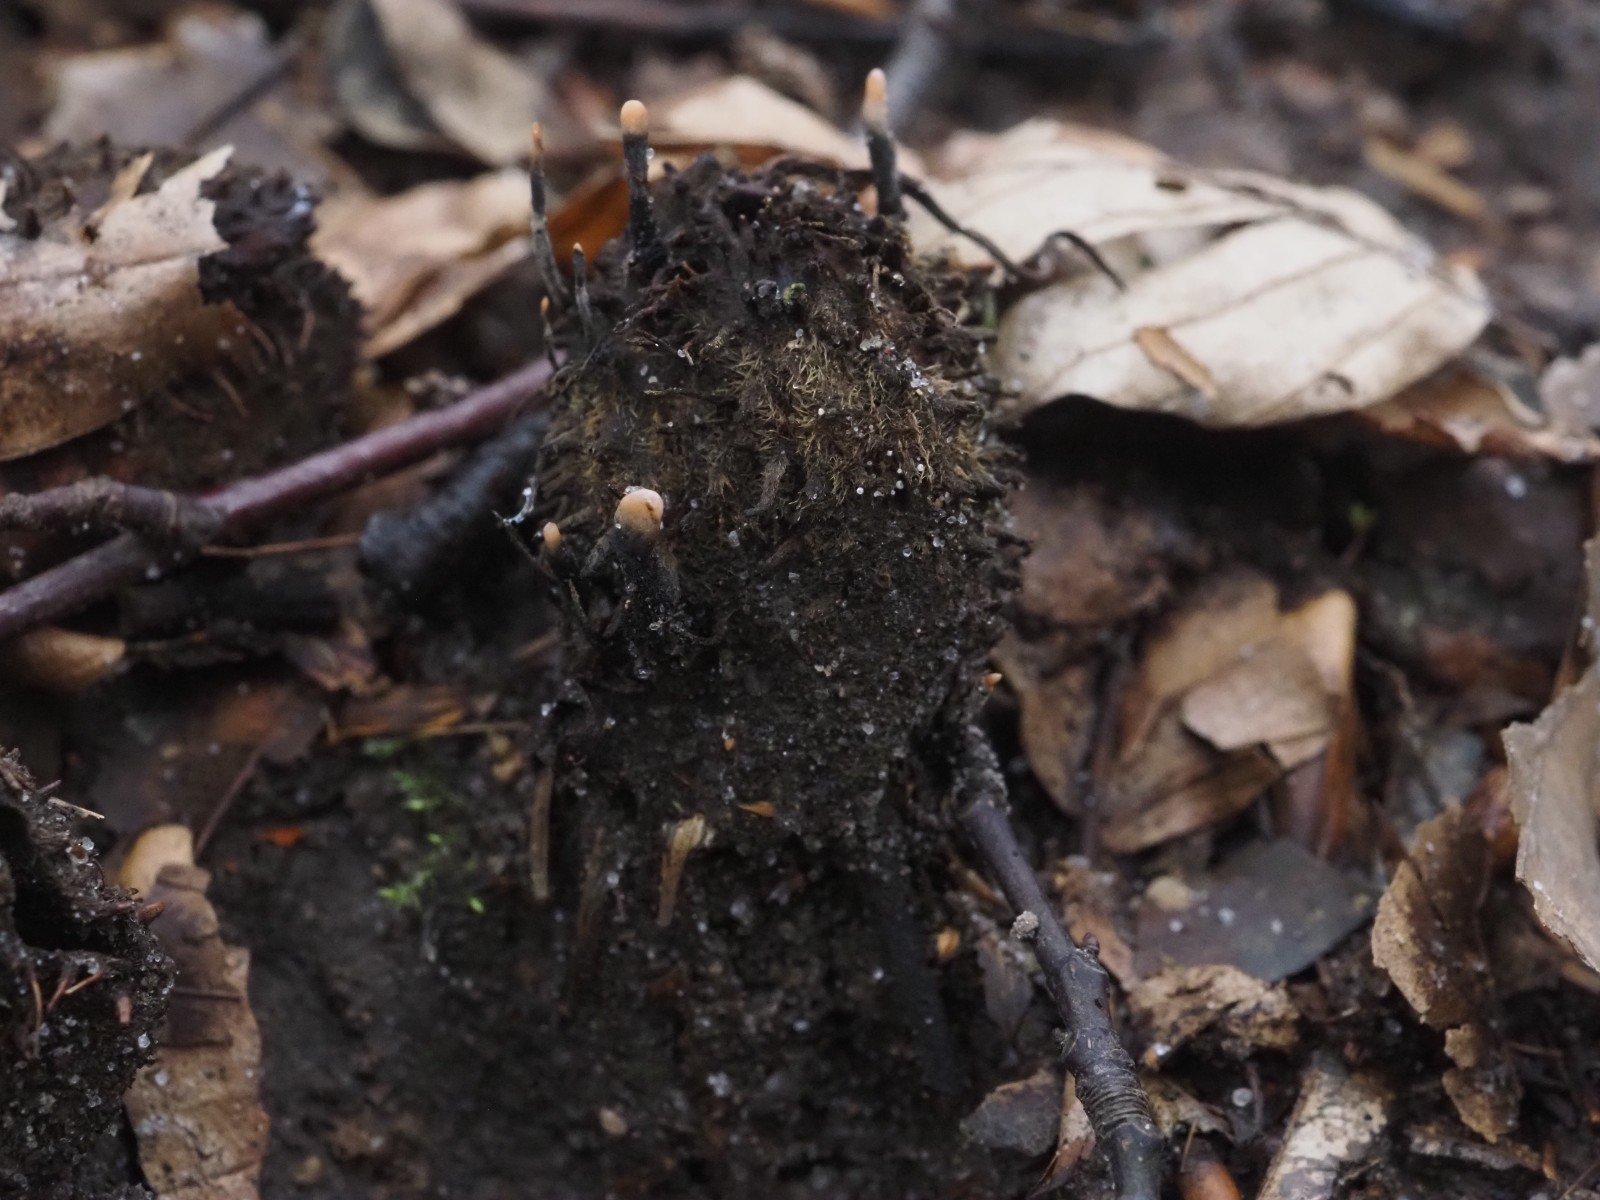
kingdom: Fungi
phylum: Ascomycota
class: Sordariomycetes
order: Xylariales
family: Xylariaceae
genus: Xylaria
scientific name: Xylaria carpophila
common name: bogskål-stødsvamp
